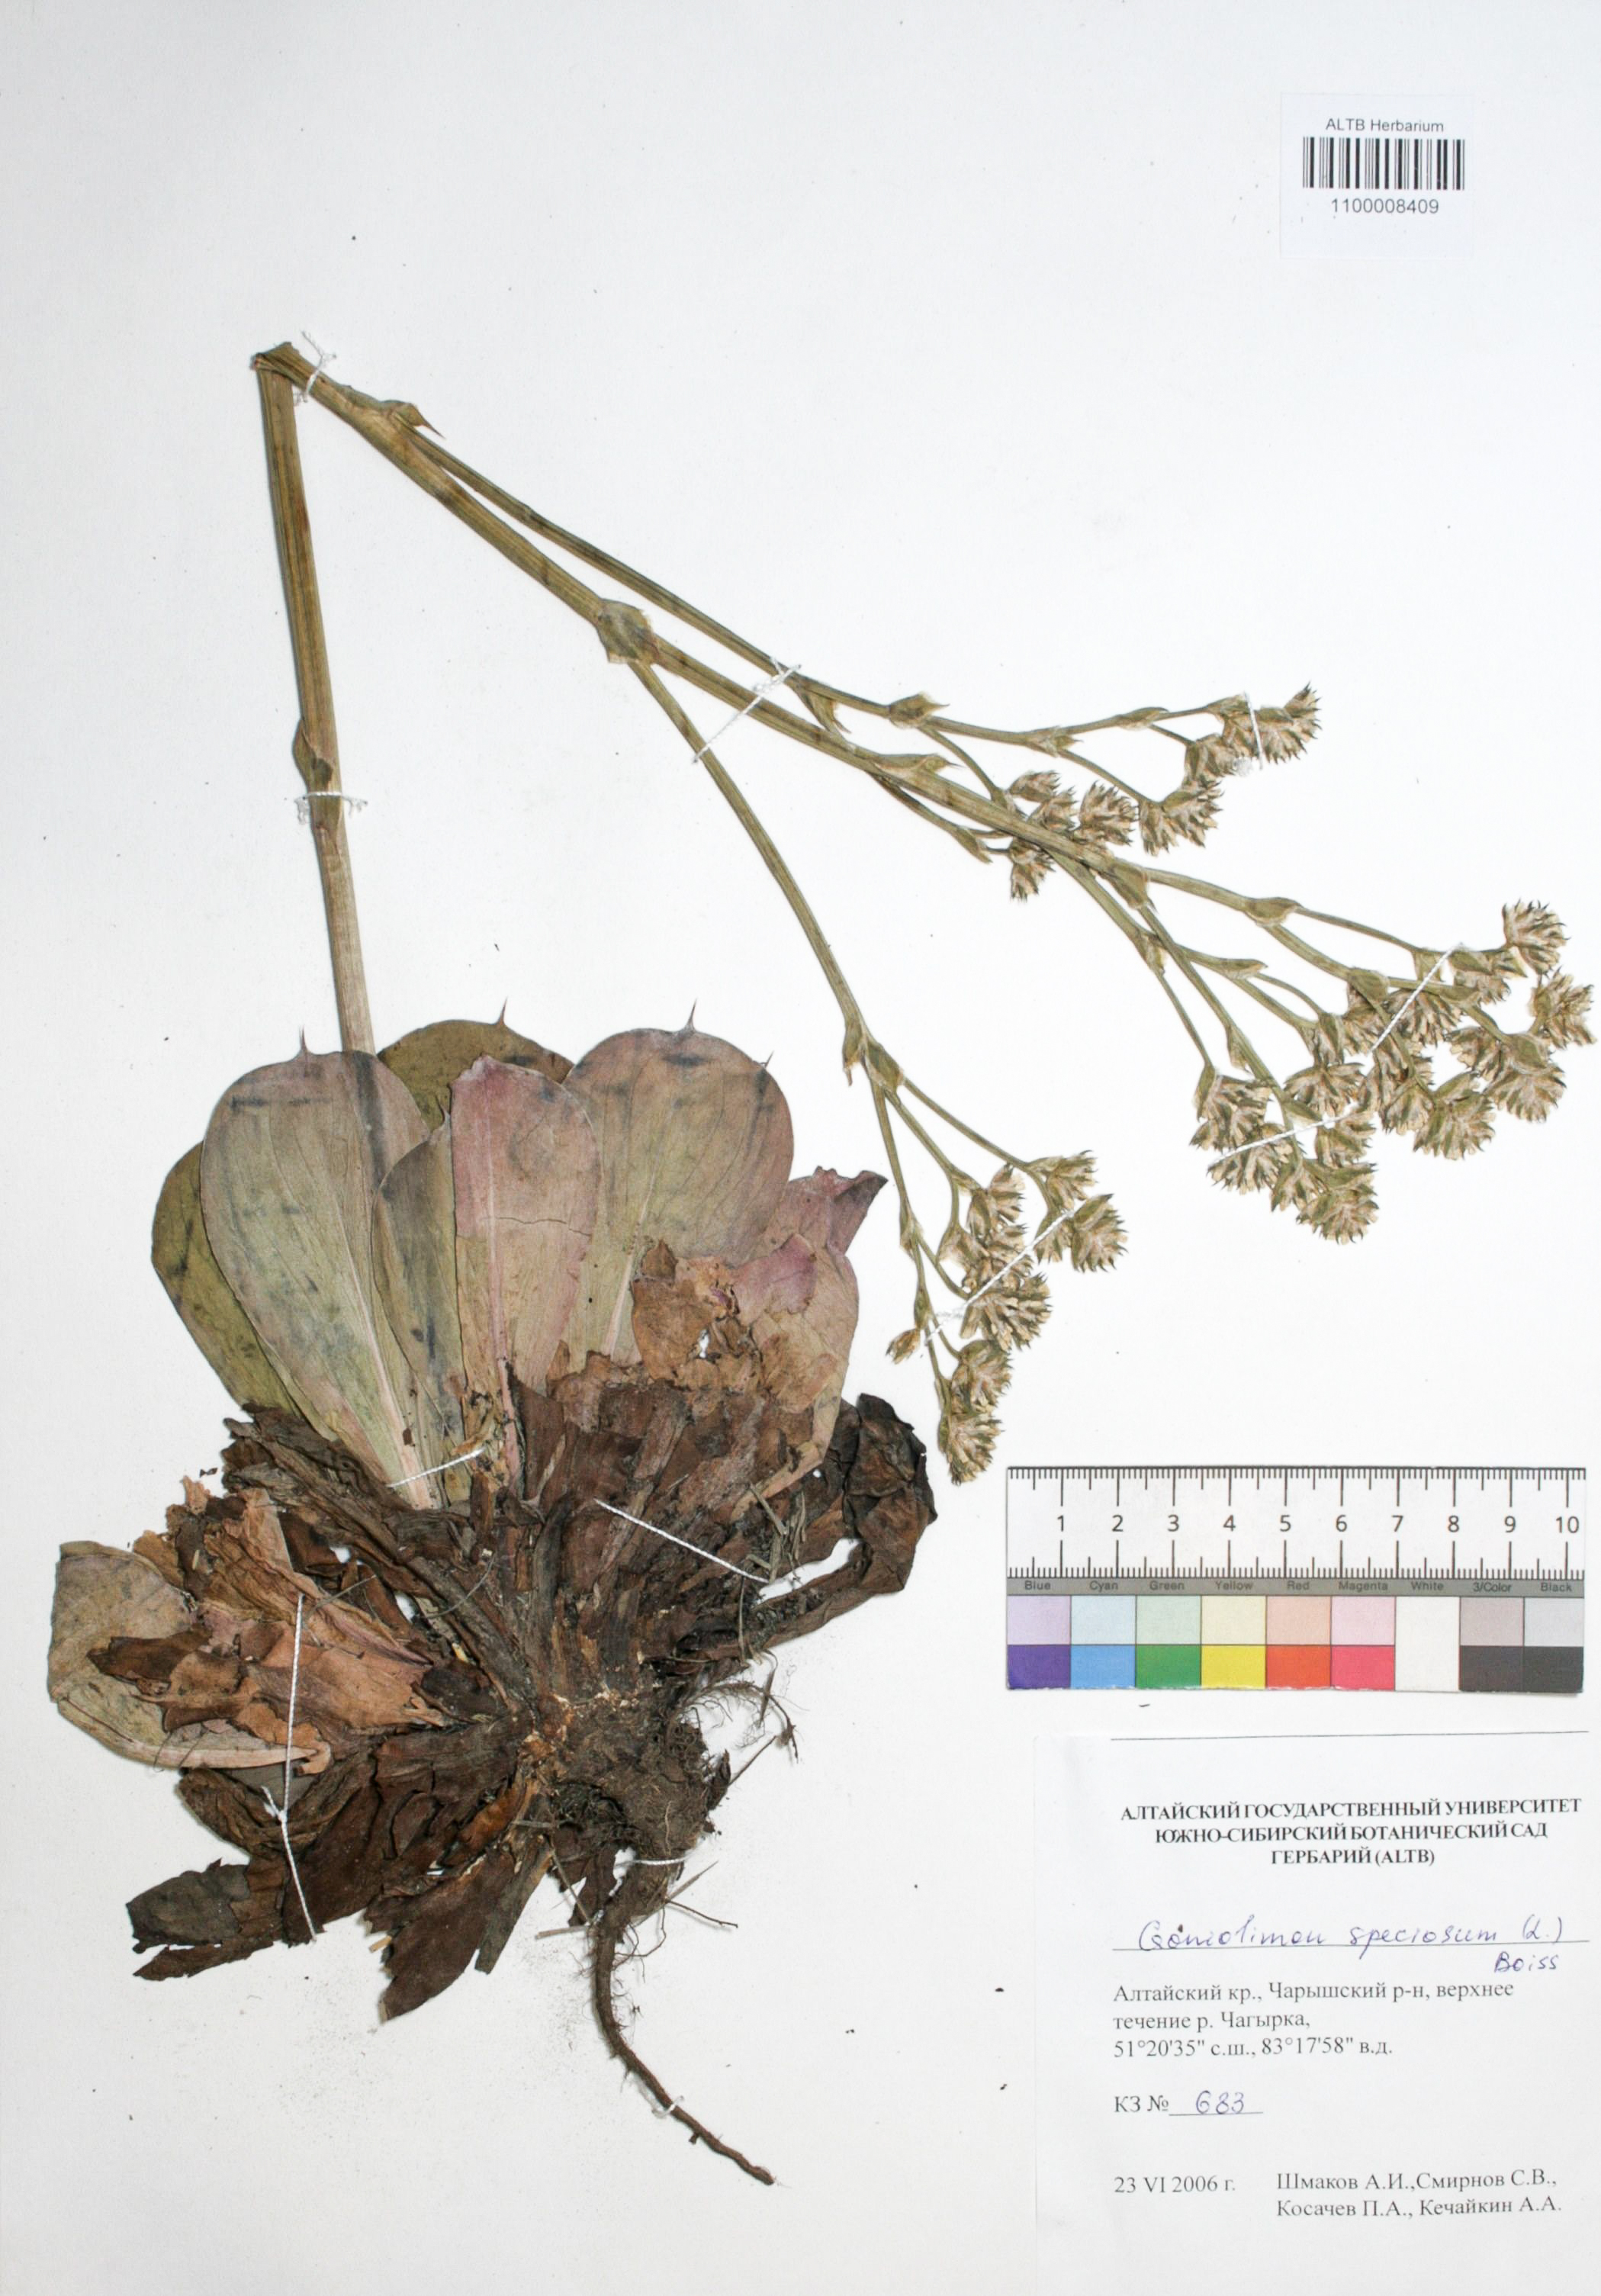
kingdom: Plantae
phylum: Tracheophyta
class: Magnoliopsida
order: Caryophyllales
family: Plumbaginaceae
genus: Goniolimon
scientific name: Goniolimon speciosum
